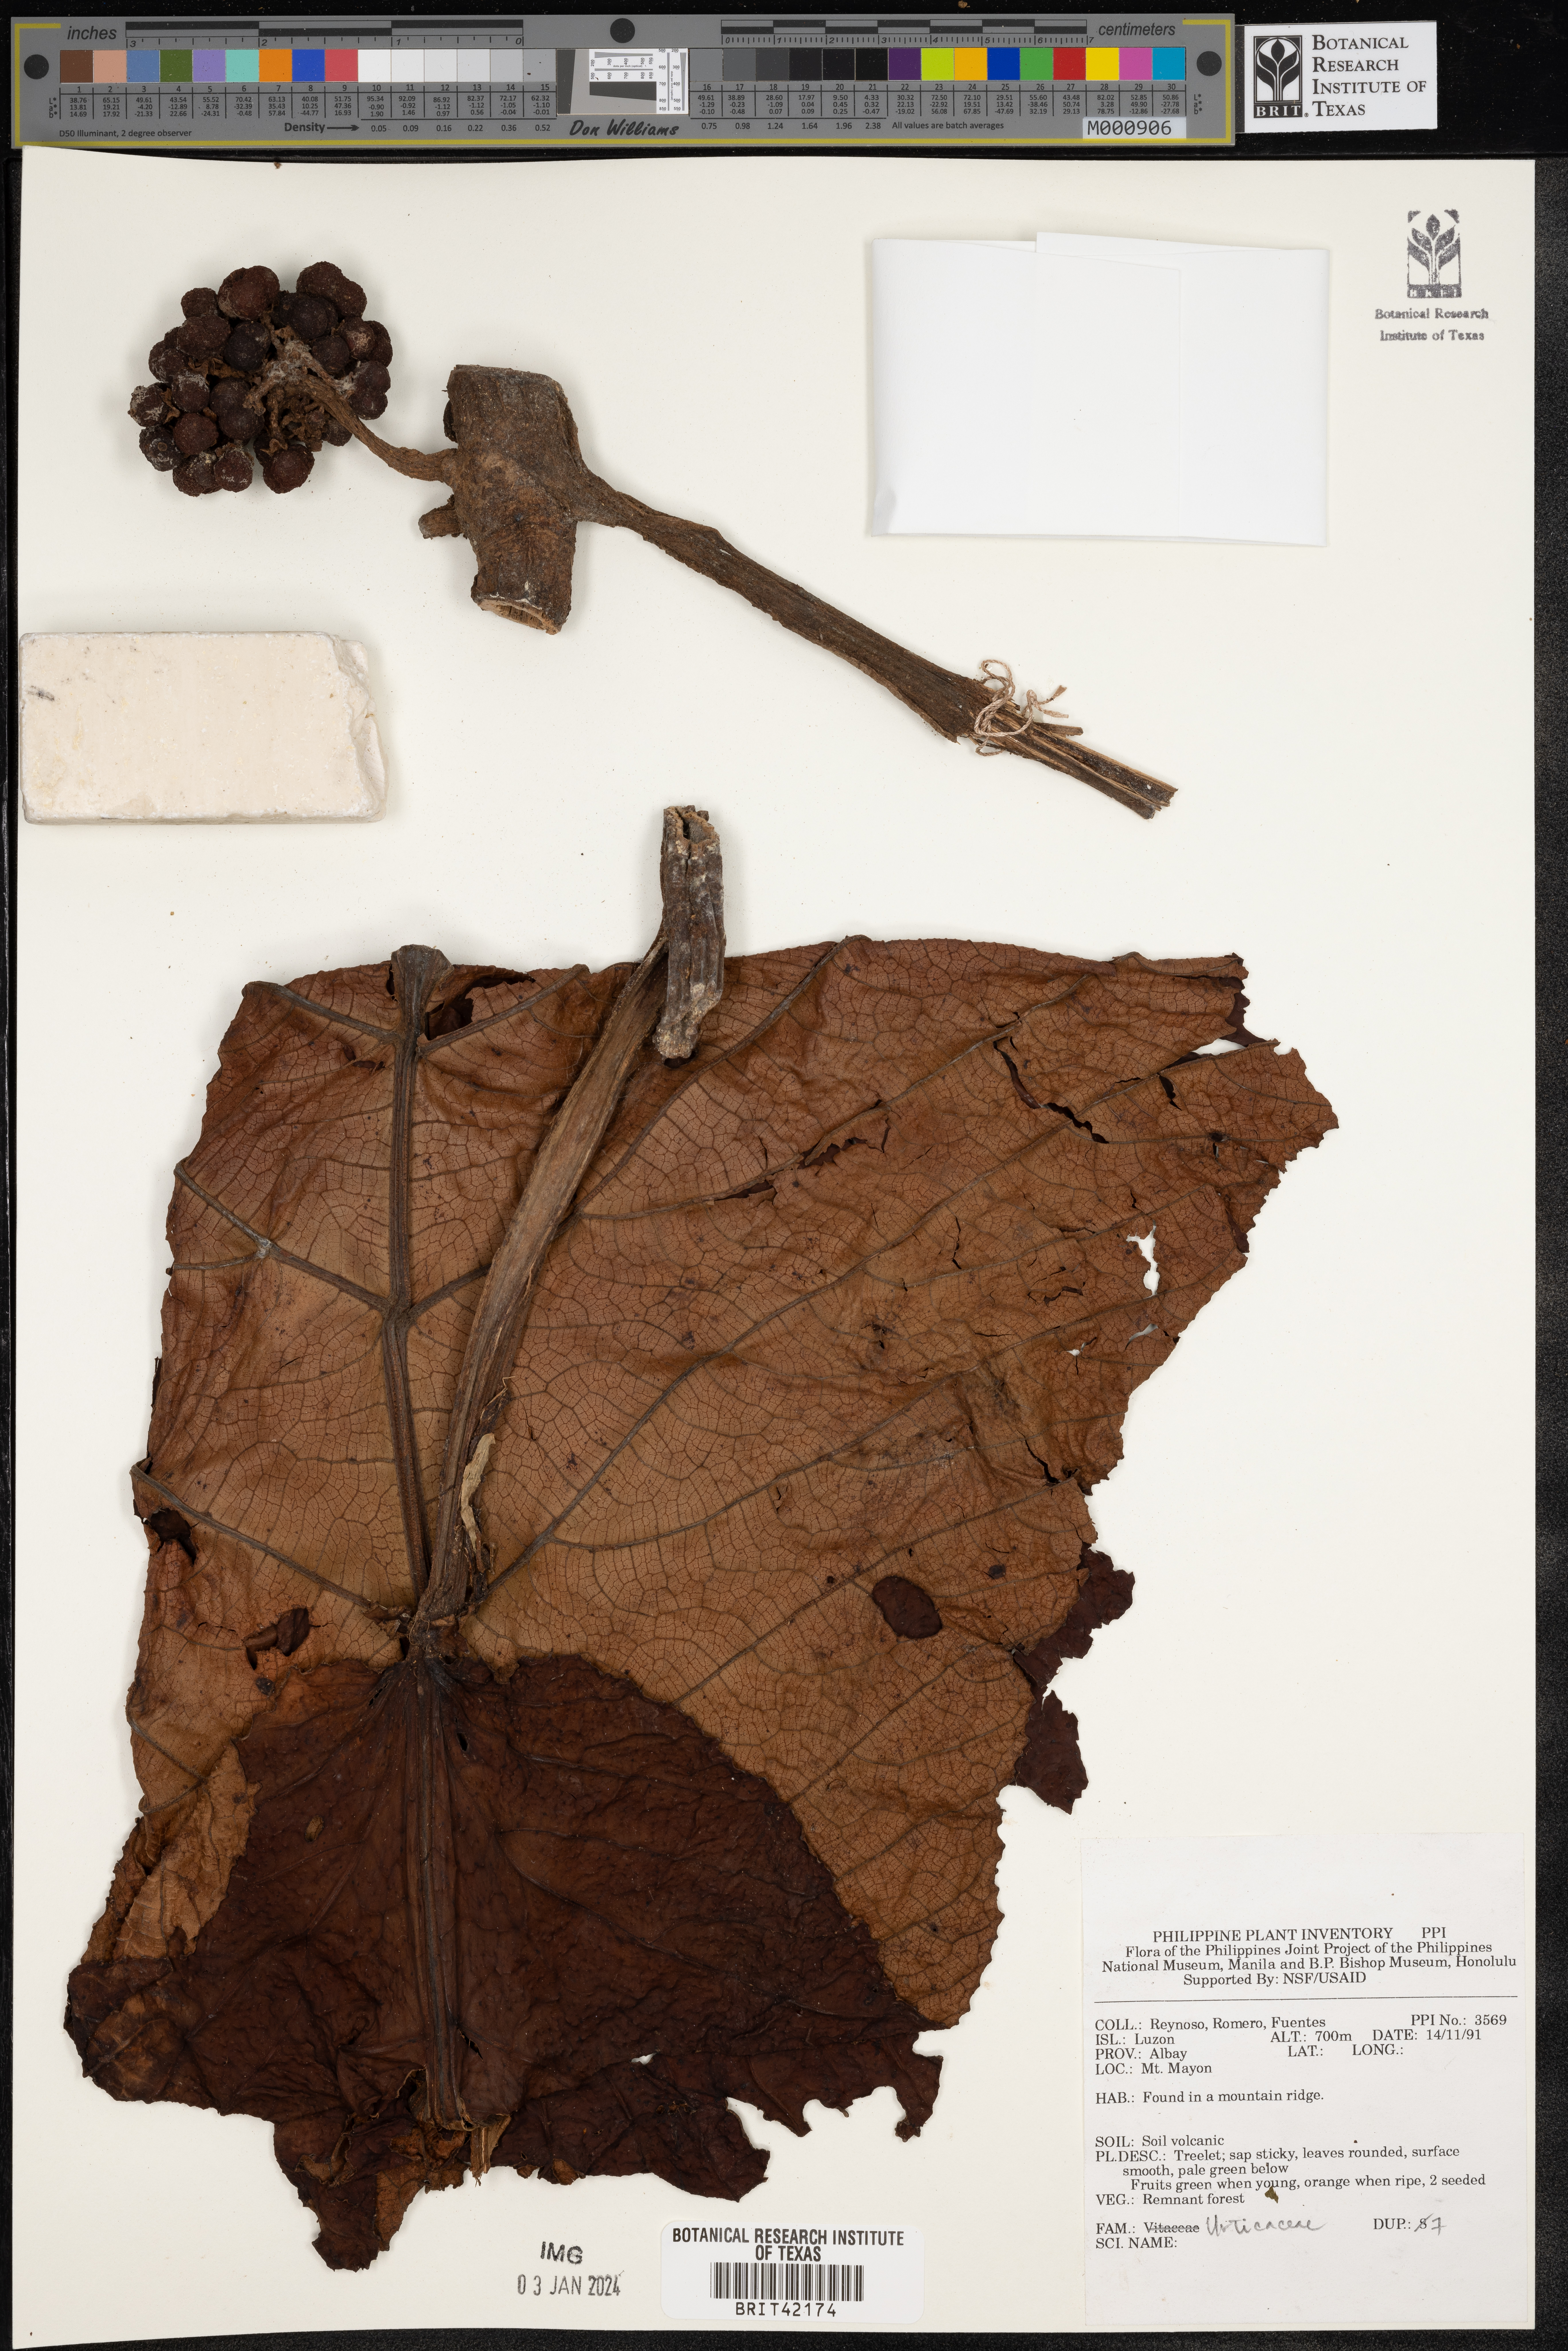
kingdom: Plantae
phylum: Tracheophyta
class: Magnoliopsida
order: Rosales
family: Urticaceae
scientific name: Urticaceae
